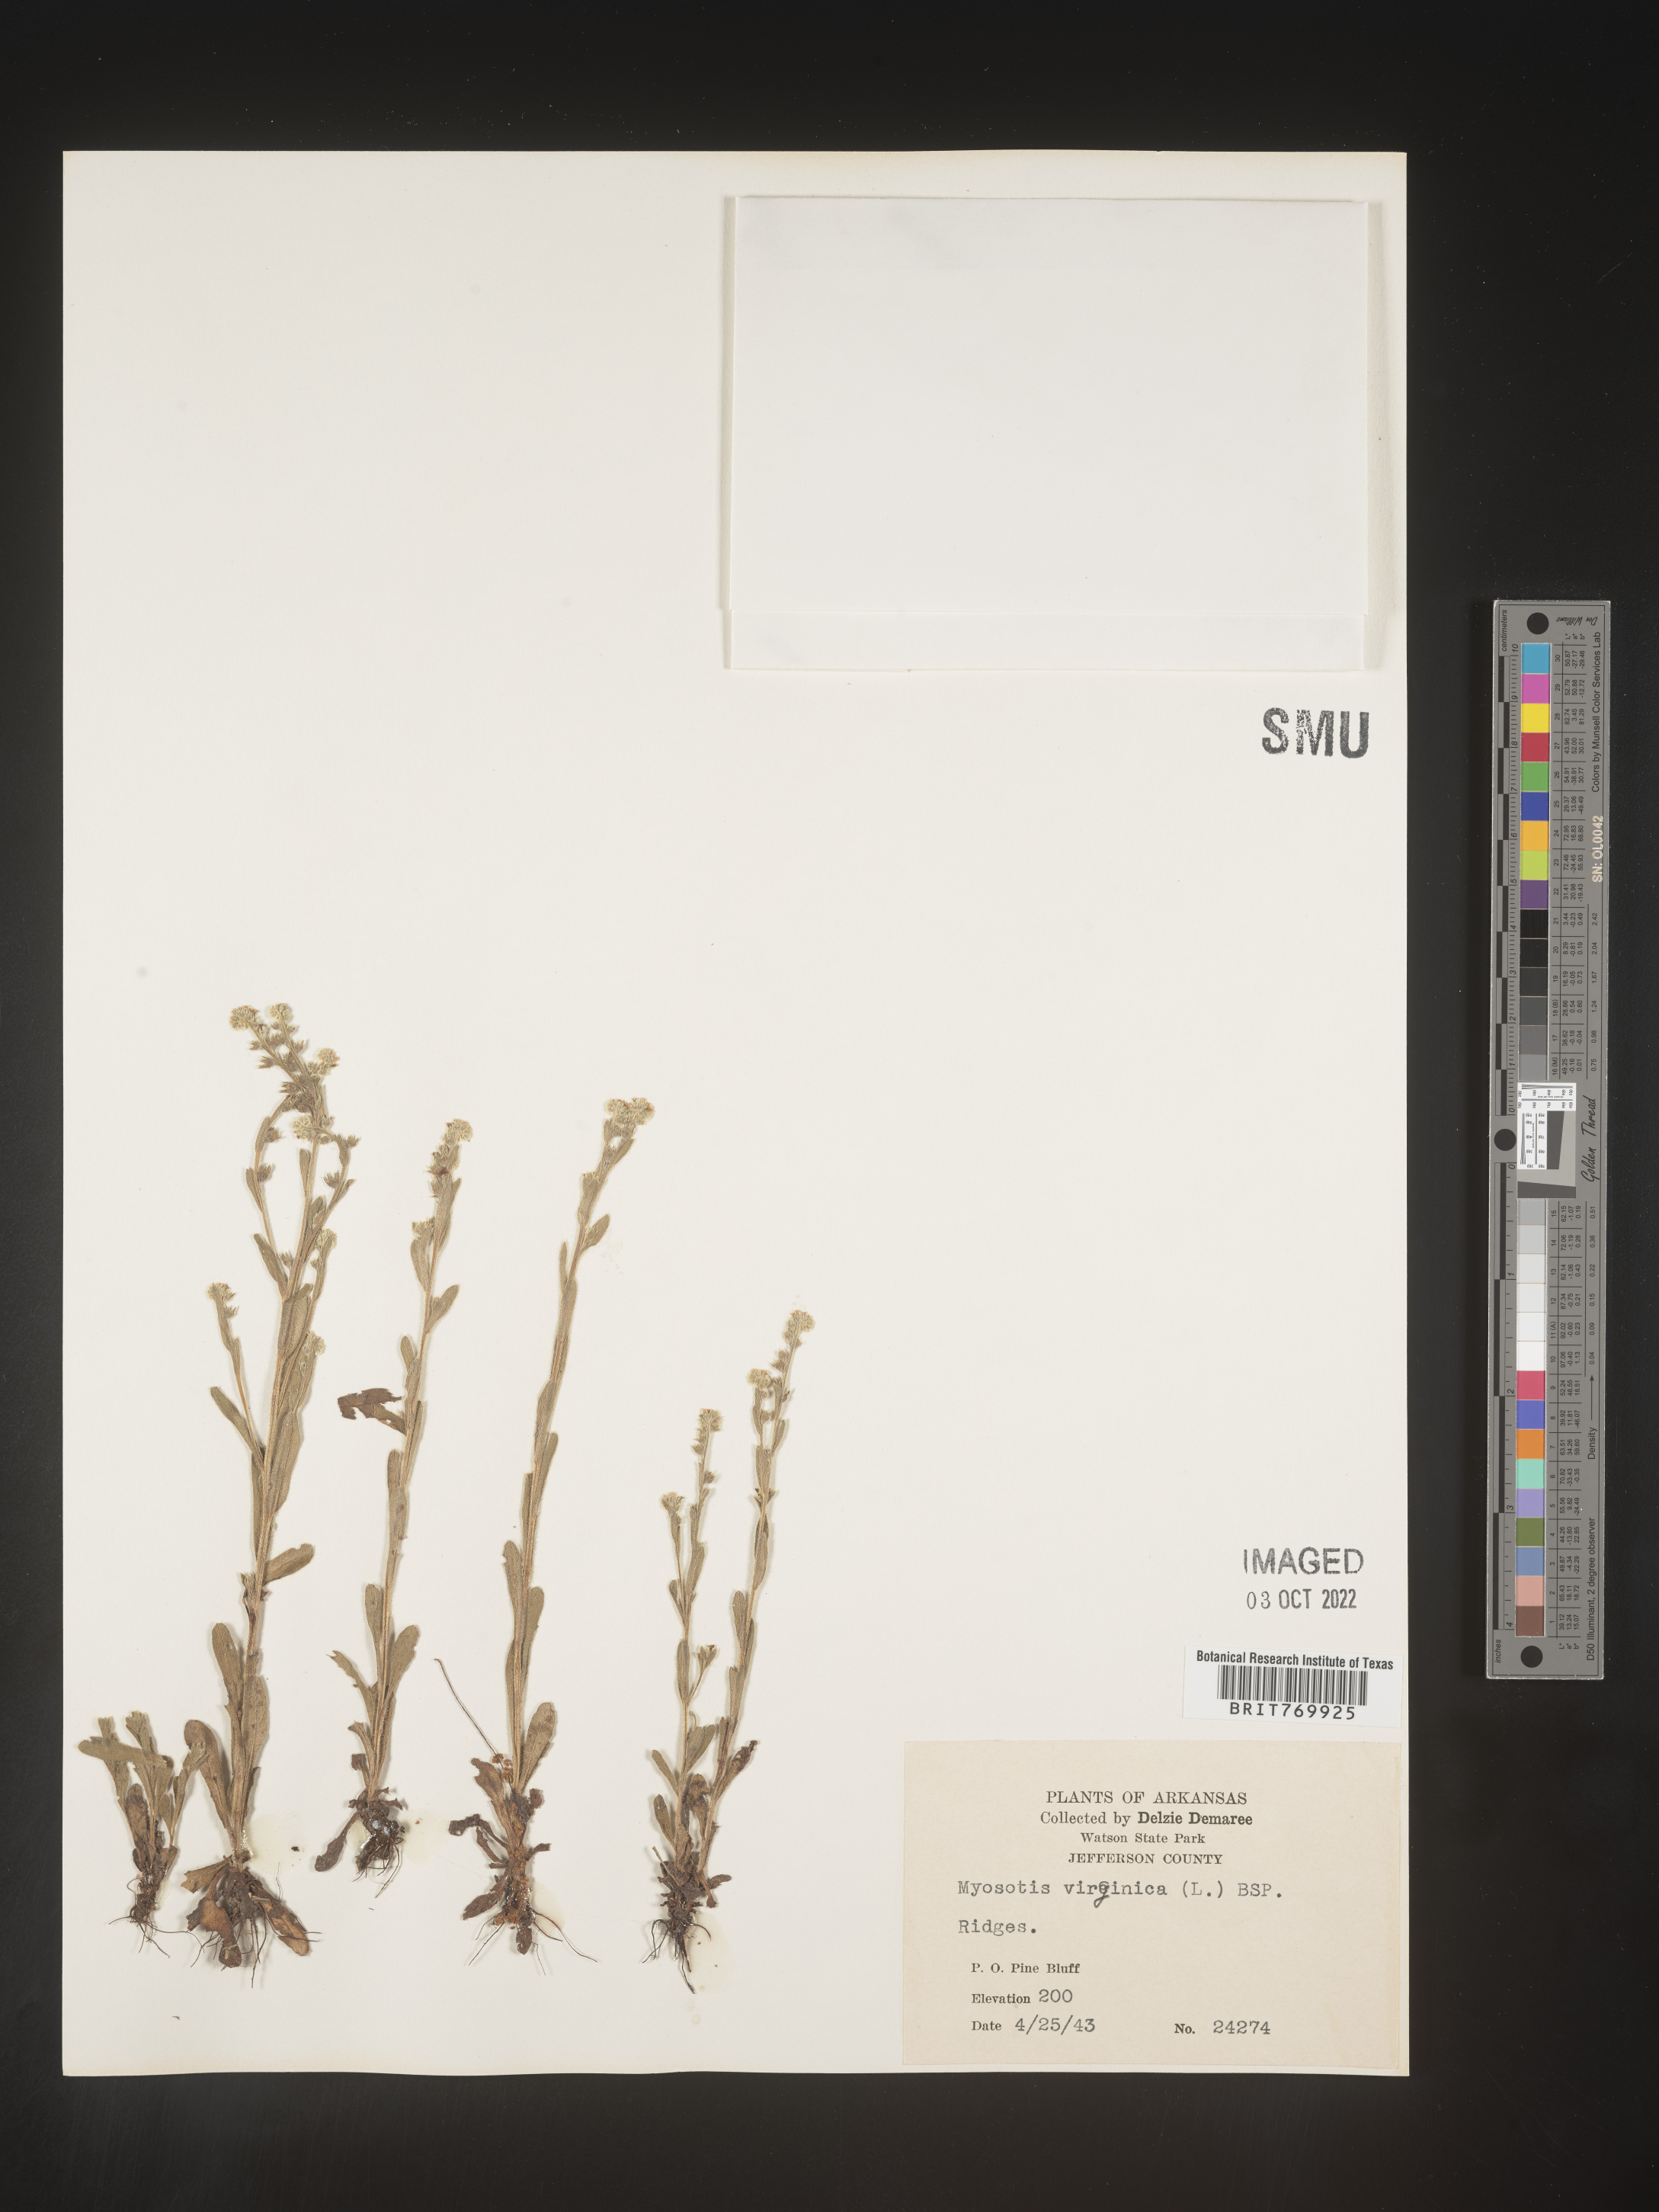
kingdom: Plantae
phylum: Tracheophyta
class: Magnoliopsida
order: Boraginales
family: Boraginaceae
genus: Myosotis
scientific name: Myosotis verna
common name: Early forget-me-not
